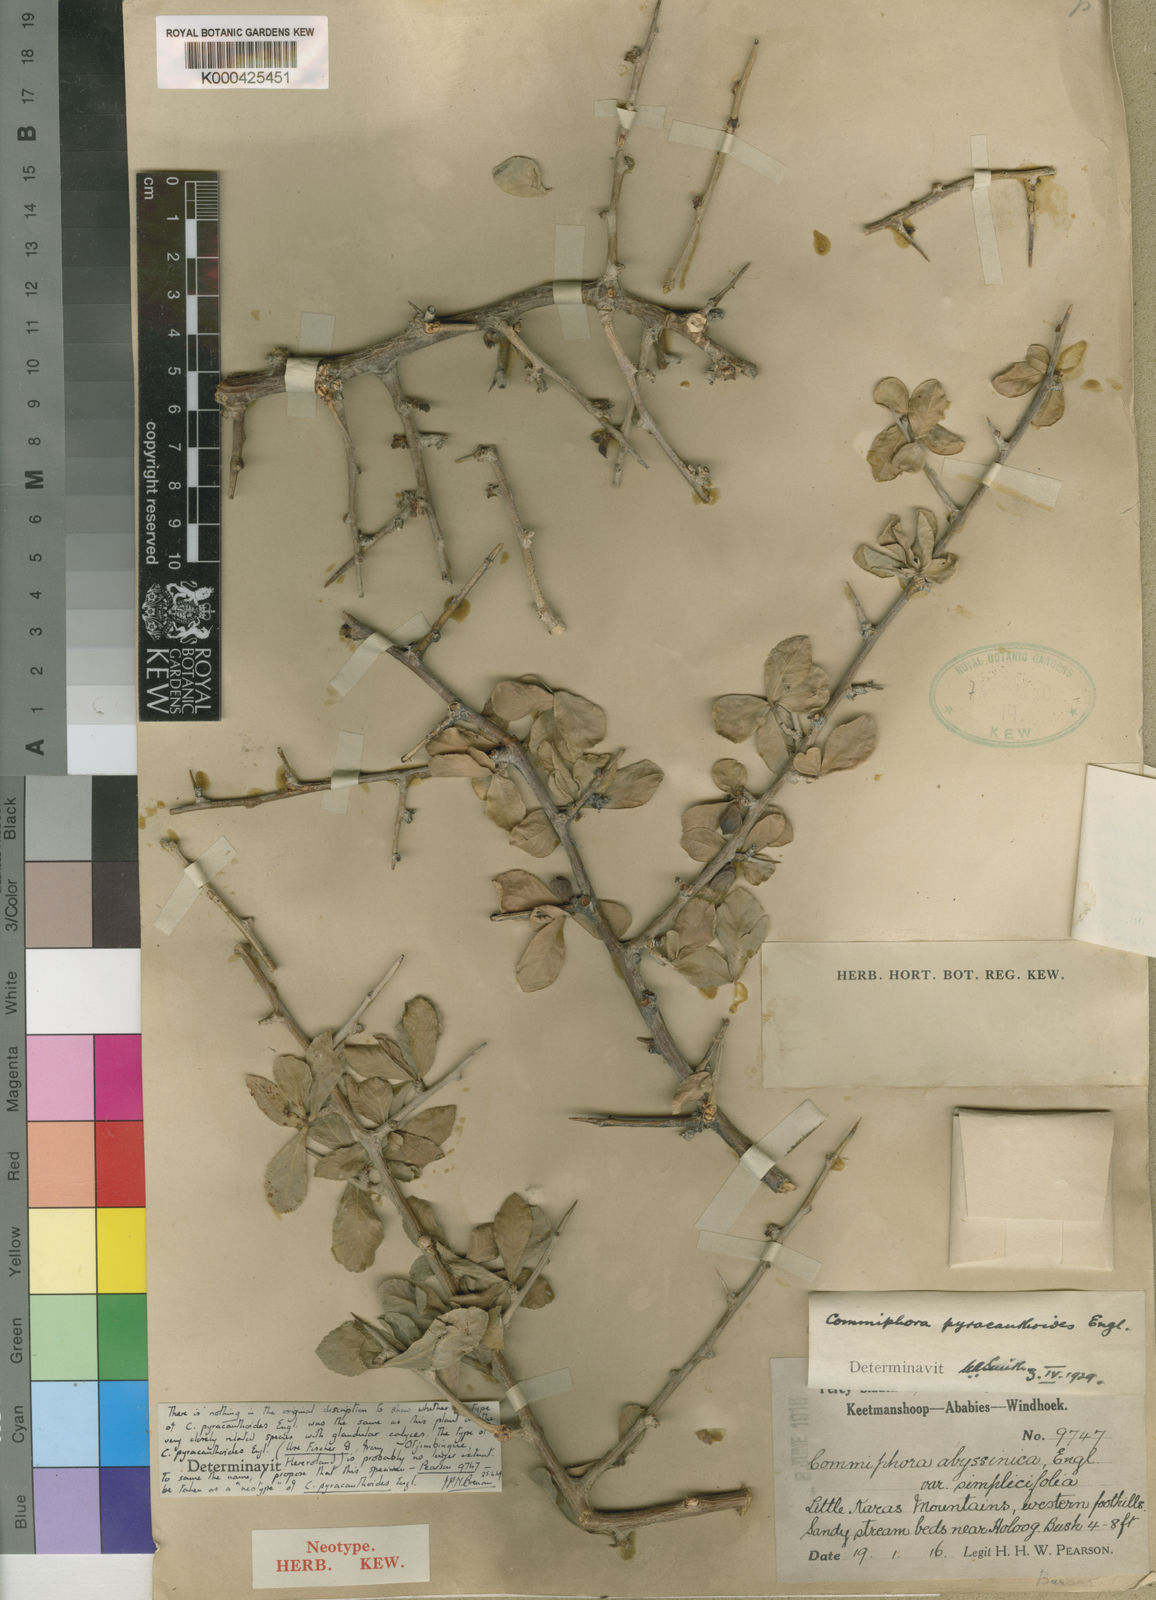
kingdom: Plantae
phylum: Tracheophyta
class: Magnoliopsida
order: Sapindales
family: Burseraceae
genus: Commiphora
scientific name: Commiphora pyracanthoides
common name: Cork tree
